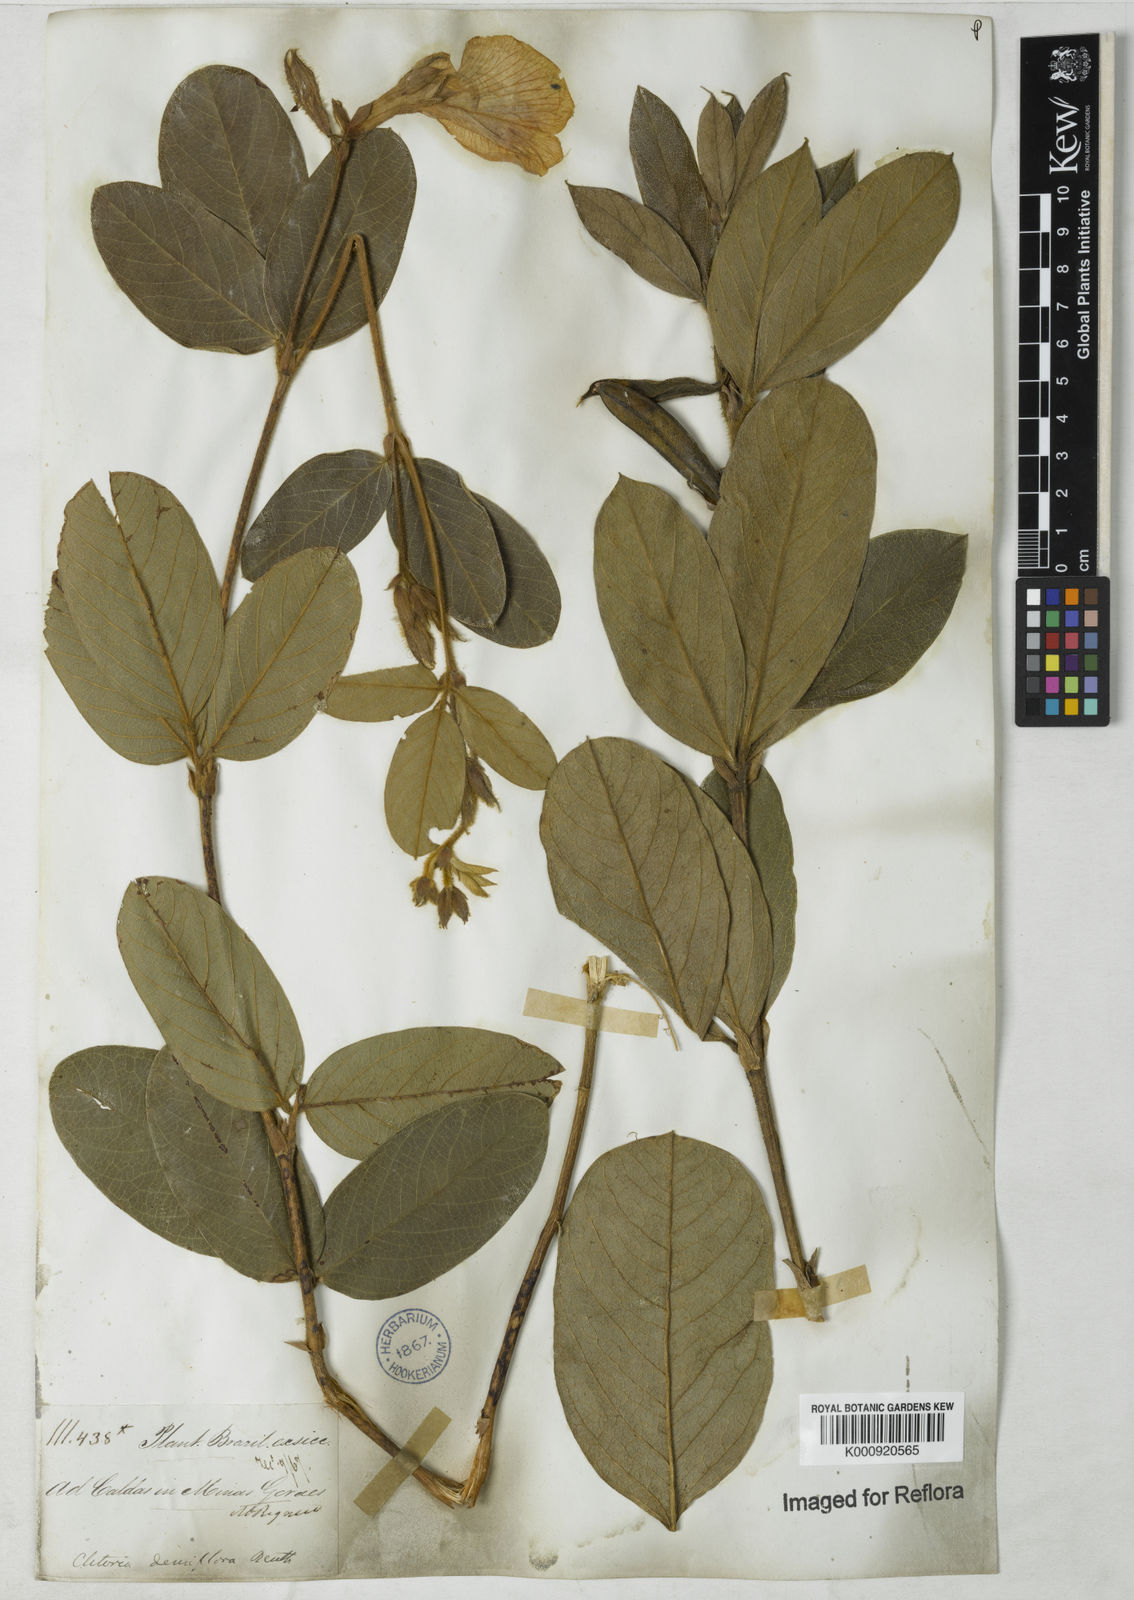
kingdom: Plantae
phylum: Tracheophyta
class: Magnoliopsida
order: Fabales
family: Fabaceae
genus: Clitoria
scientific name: Clitoria
